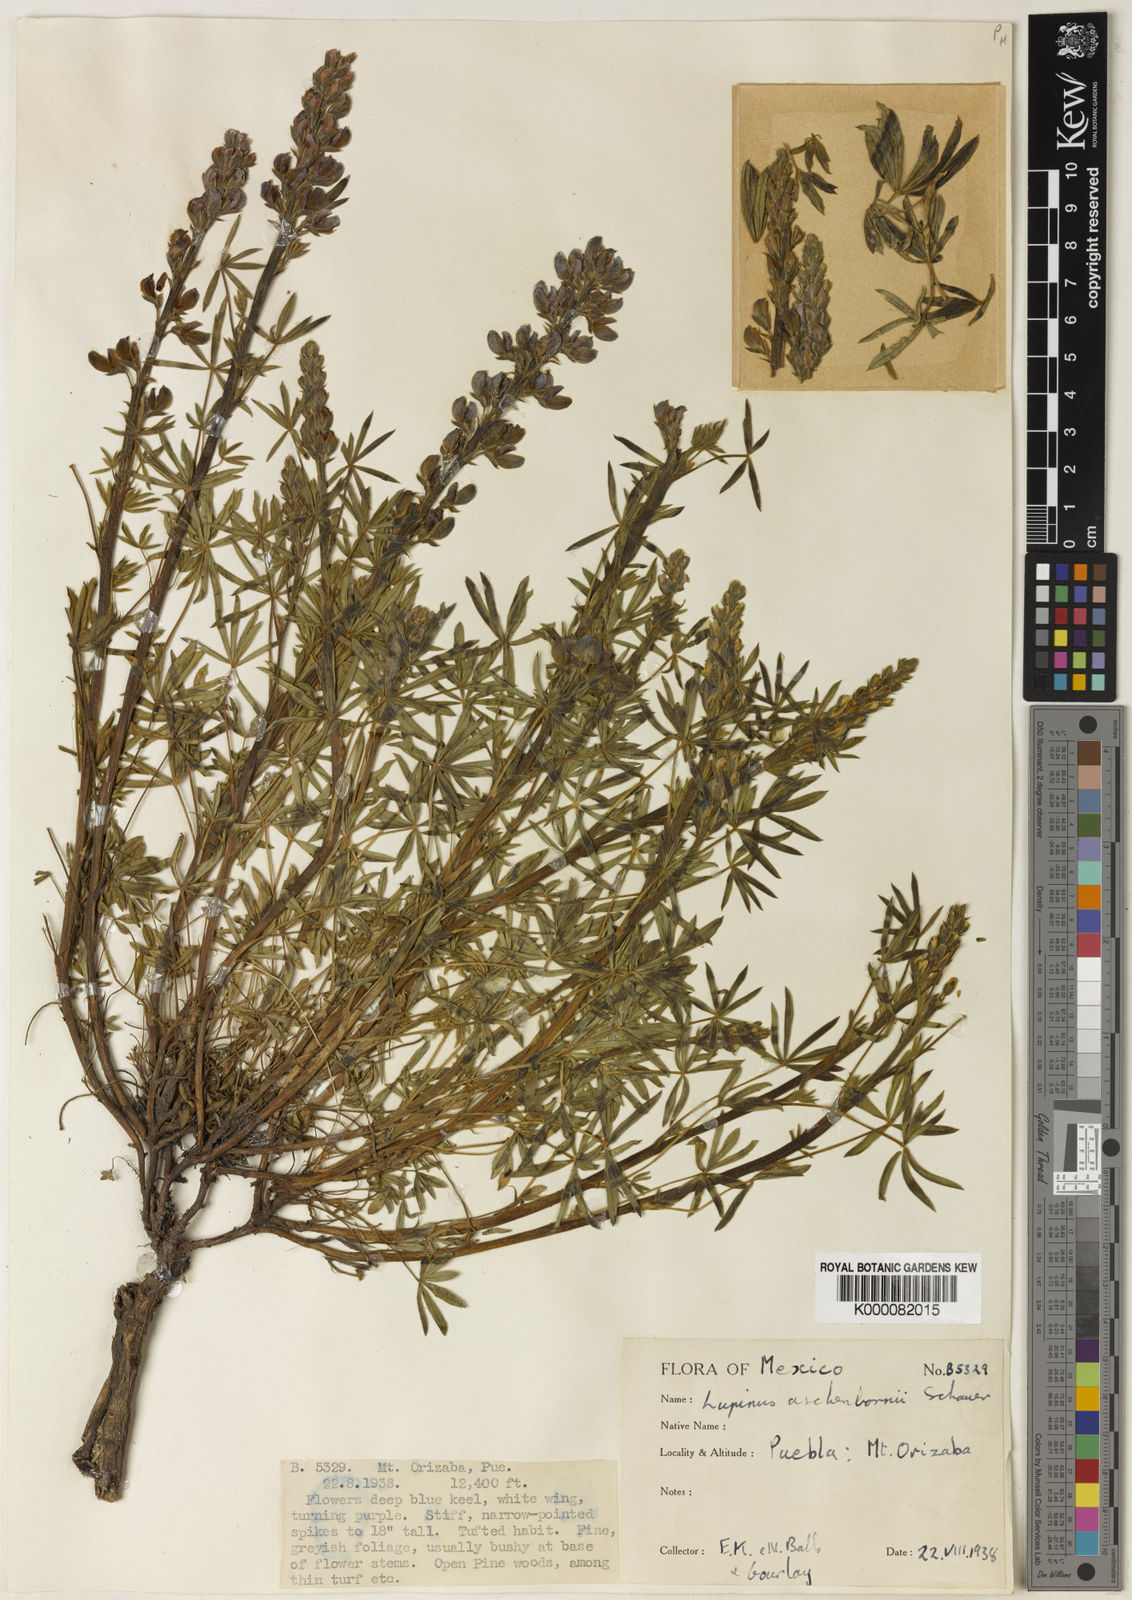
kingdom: Plantae
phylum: Tracheophyta
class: Magnoliopsida
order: Fabales
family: Fabaceae
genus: Lupinus
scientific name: Lupinus aschenbornii
